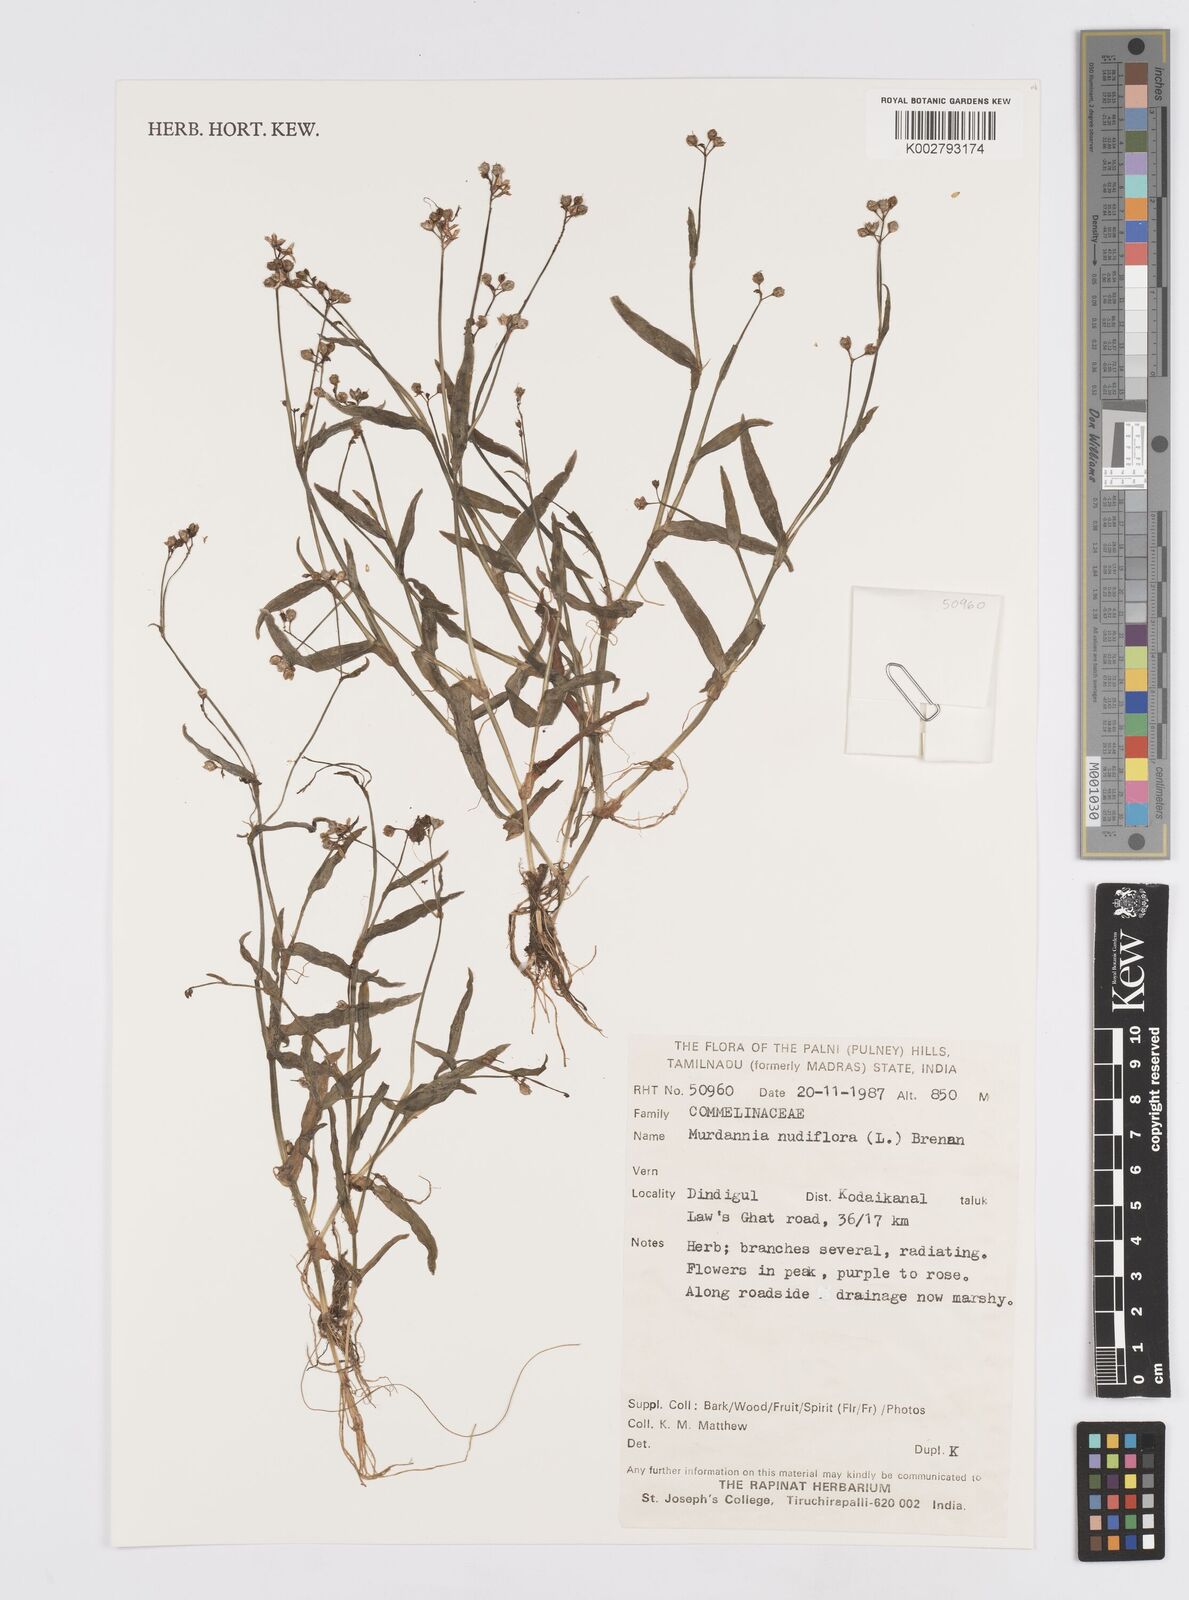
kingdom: Plantae
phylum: Tracheophyta
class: Liliopsida
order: Commelinales
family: Commelinaceae
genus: Murdannia
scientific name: Murdannia nudiflora
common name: Nakedstem dewflower
